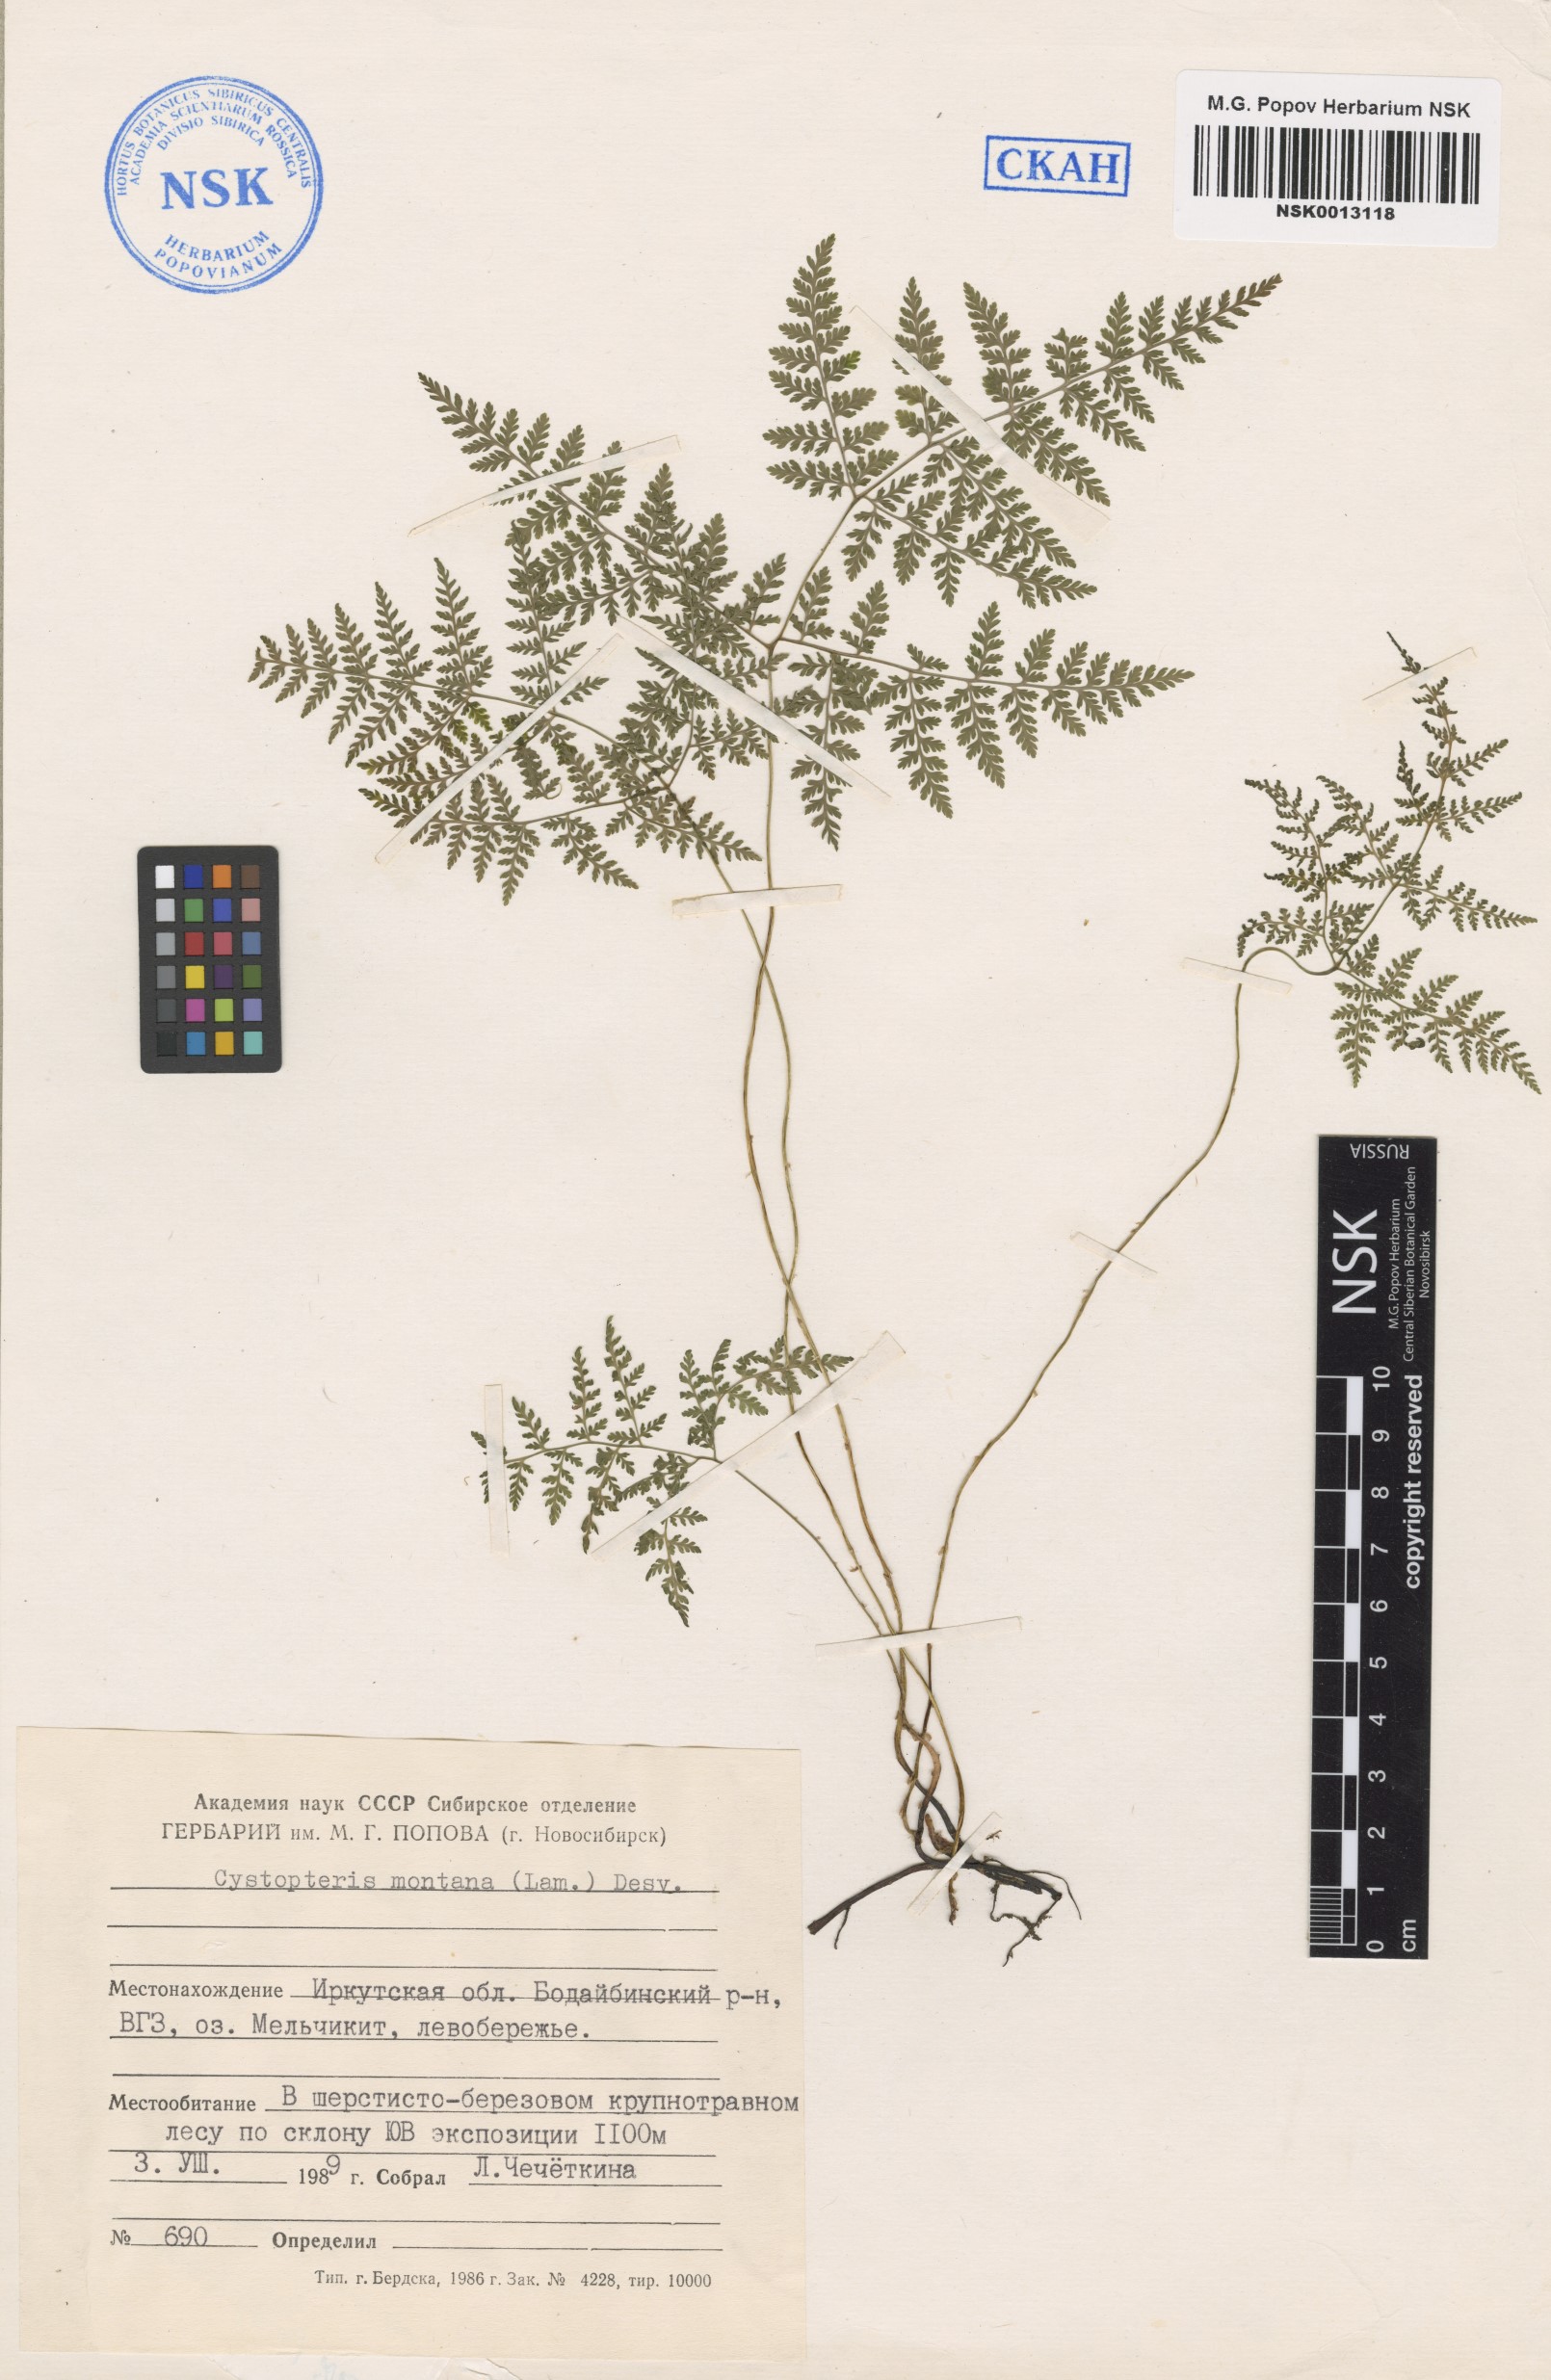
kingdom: Plantae
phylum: Tracheophyta
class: Polypodiopsida
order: Polypodiales
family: Cystopteridaceae
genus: Cystopteris
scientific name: Cystopteris montana
